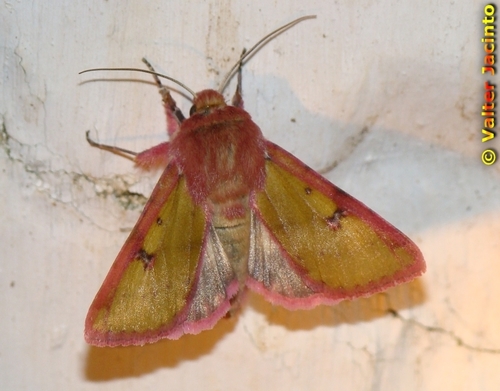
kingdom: Animalia
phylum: Arthropoda
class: Insecta
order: Lepidoptera
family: Noctuidae
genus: Heliothis
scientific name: Heliothis incarnata
